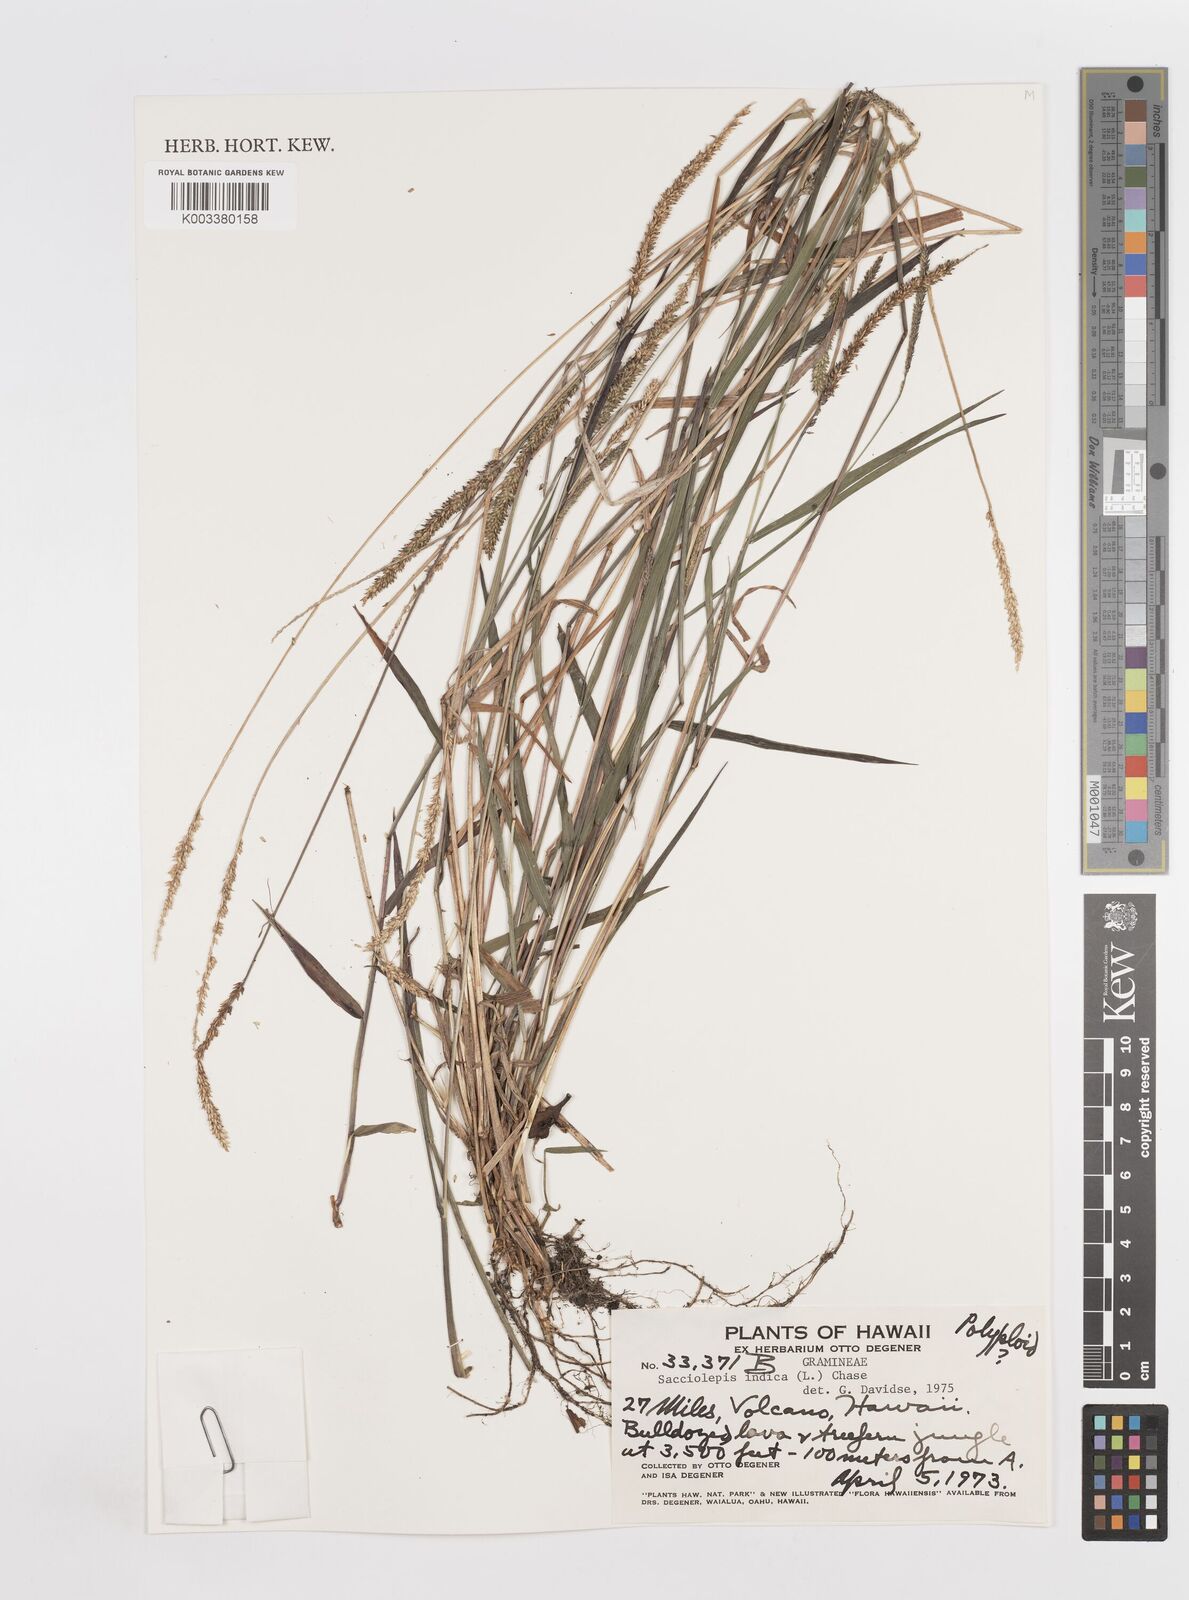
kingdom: Plantae
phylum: Tracheophyta
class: Liliopsida
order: Poales
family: Poaceae
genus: Sacciolepis
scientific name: Sacciolepis indica
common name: Glenwoodgrass
